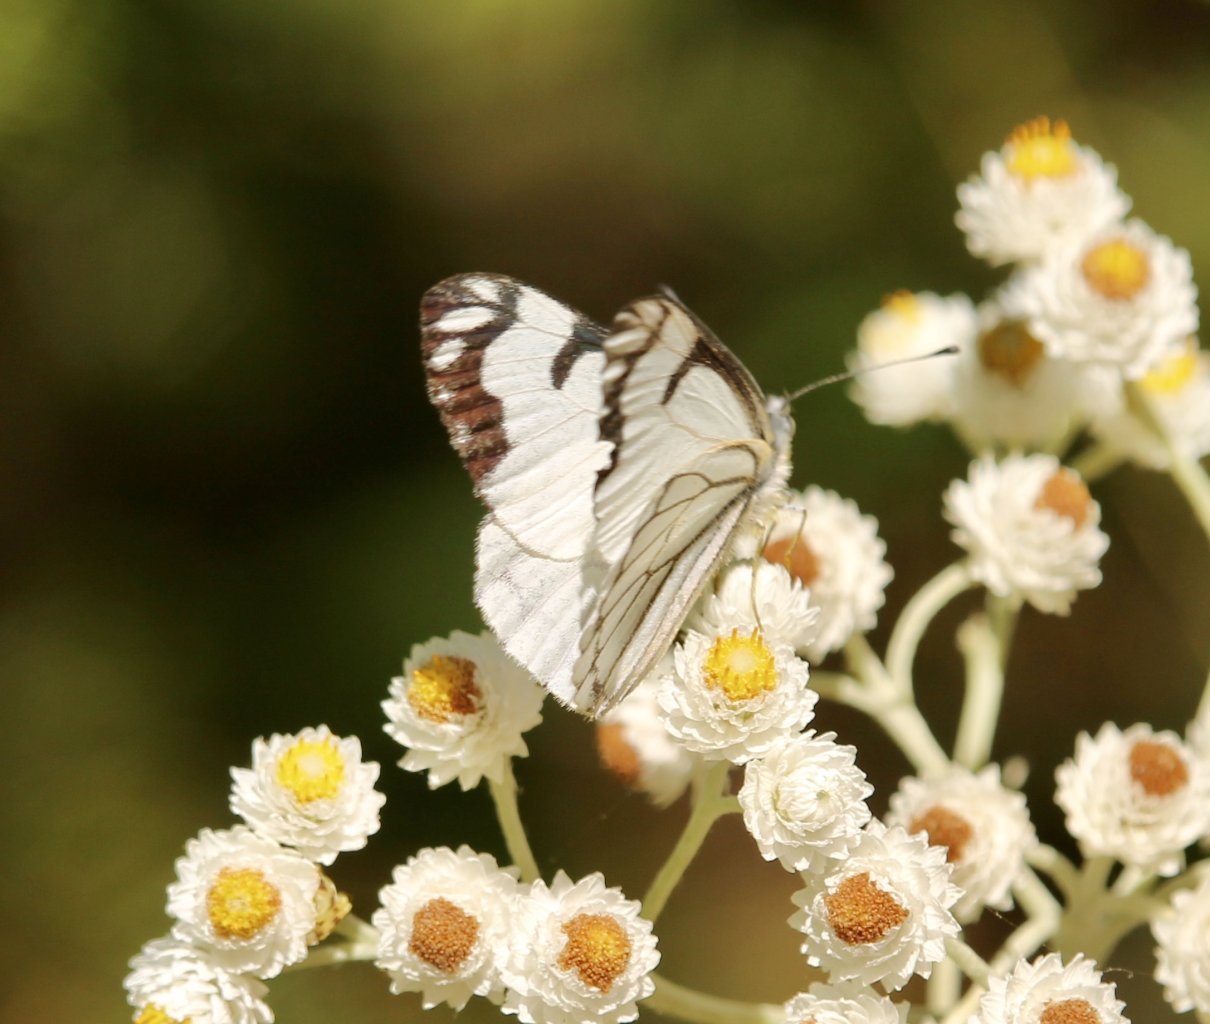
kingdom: Animalia
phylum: Arthropoda
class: Insecta
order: Lepidoptera
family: Pieridae
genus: Neophasia
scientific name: Neophasia menapia
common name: Pine White
